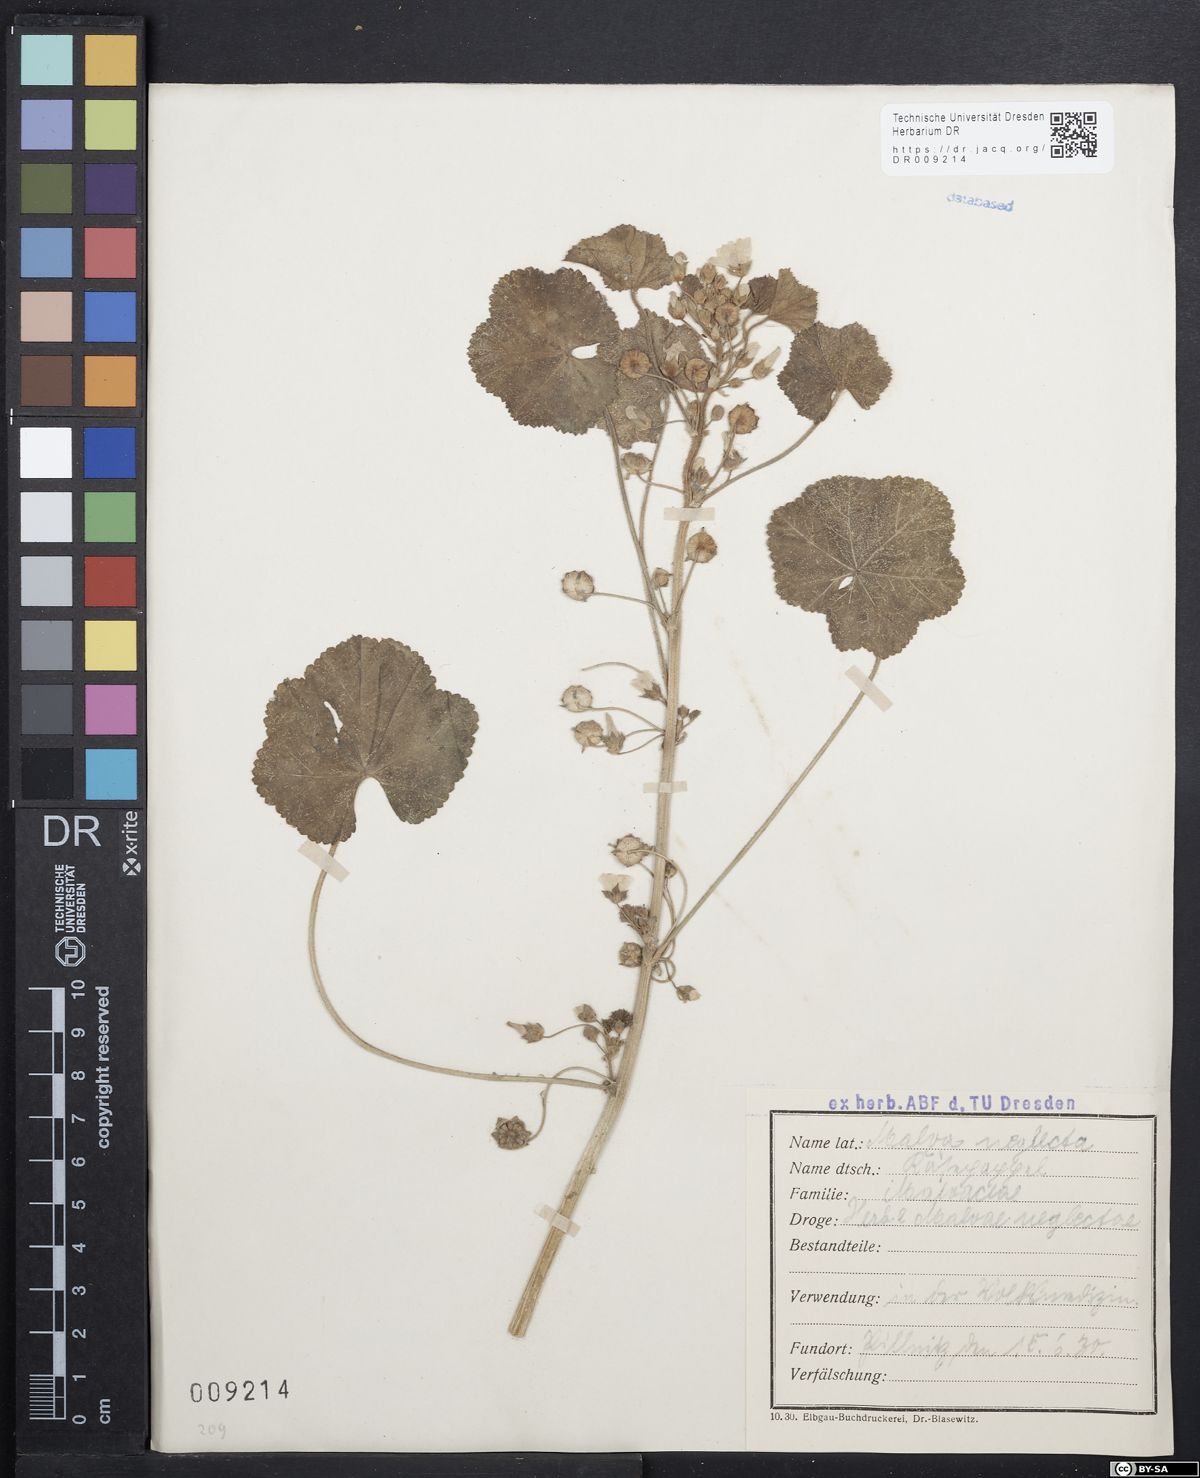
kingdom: Plantae
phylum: Tracheophyta
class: Magnoliopsida
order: Malvales
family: Malvaceae
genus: Malva
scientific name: Malva neglecta
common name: Common mallow
